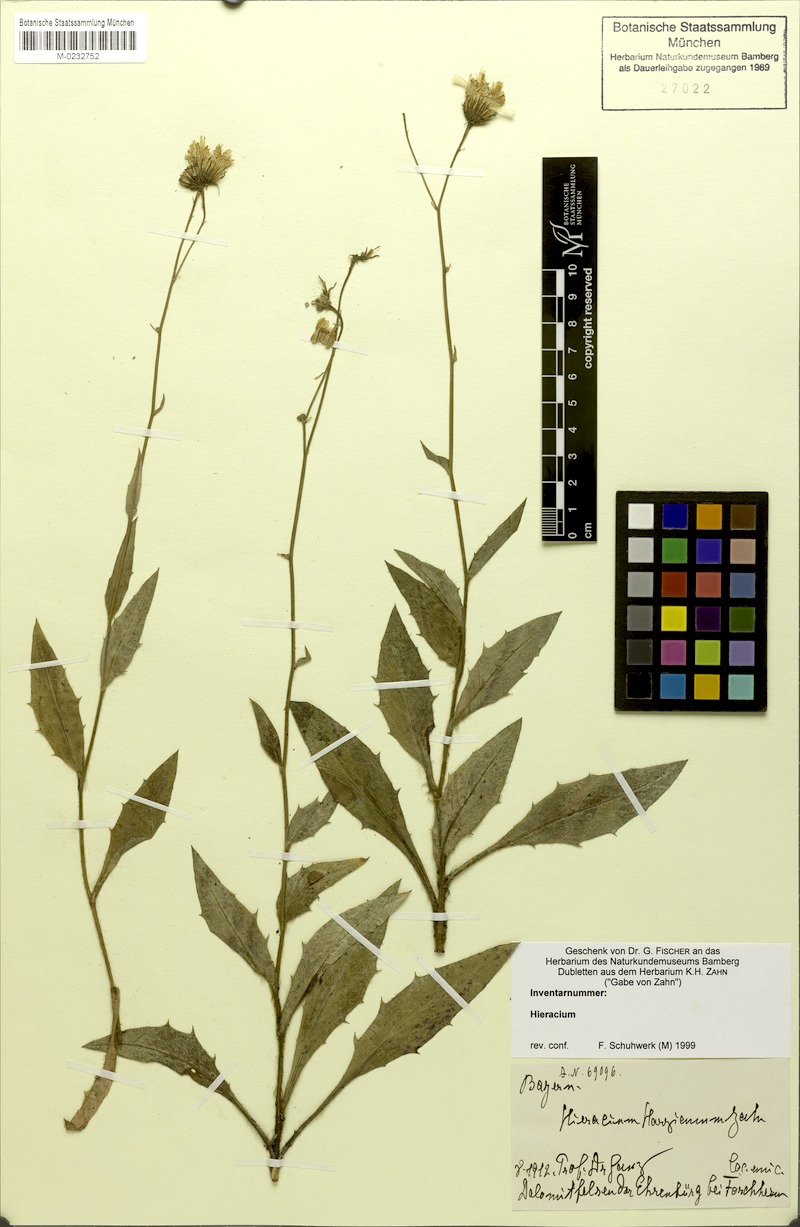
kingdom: Plantae
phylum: Tracheophyta
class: Magnoliopsida
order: Asterales
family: Asteraceae
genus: Hieracium
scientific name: Hieracium harzianum
